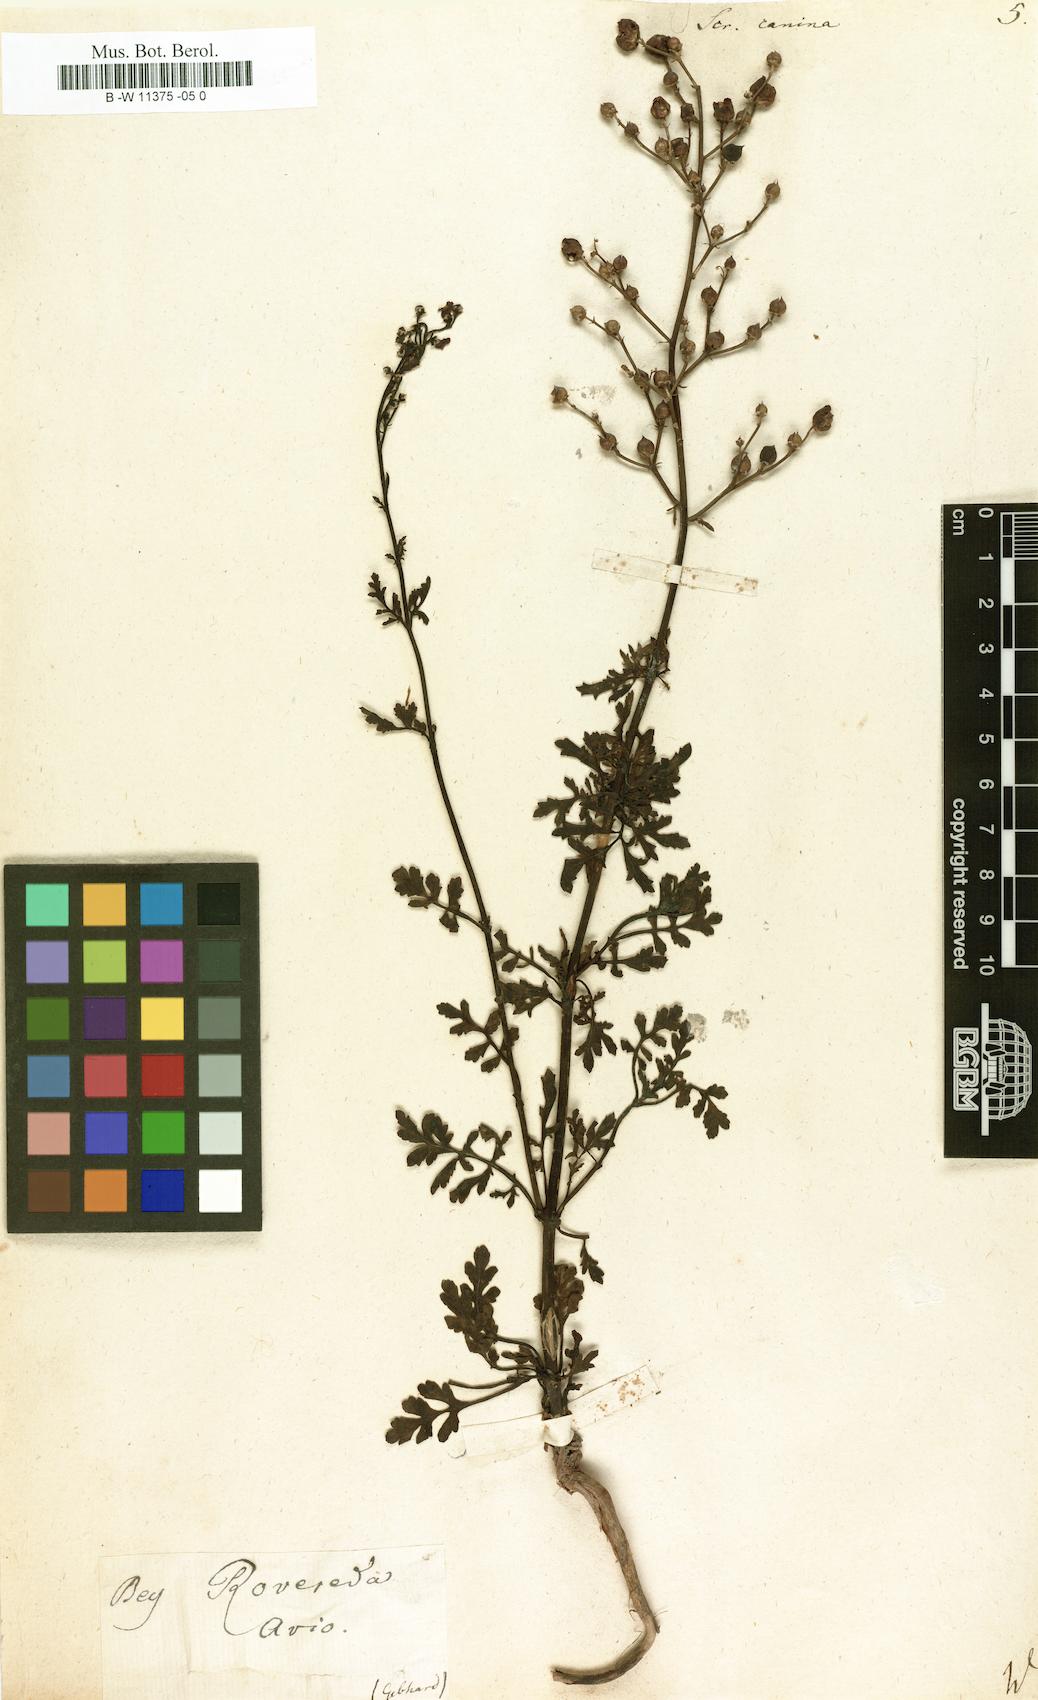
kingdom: Plantae
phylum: Tracheophyta
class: Magnoliopsida
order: Lamiales
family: Scrophulariaceae
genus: Scrophularia
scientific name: Scrophularia canina
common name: French figwort
